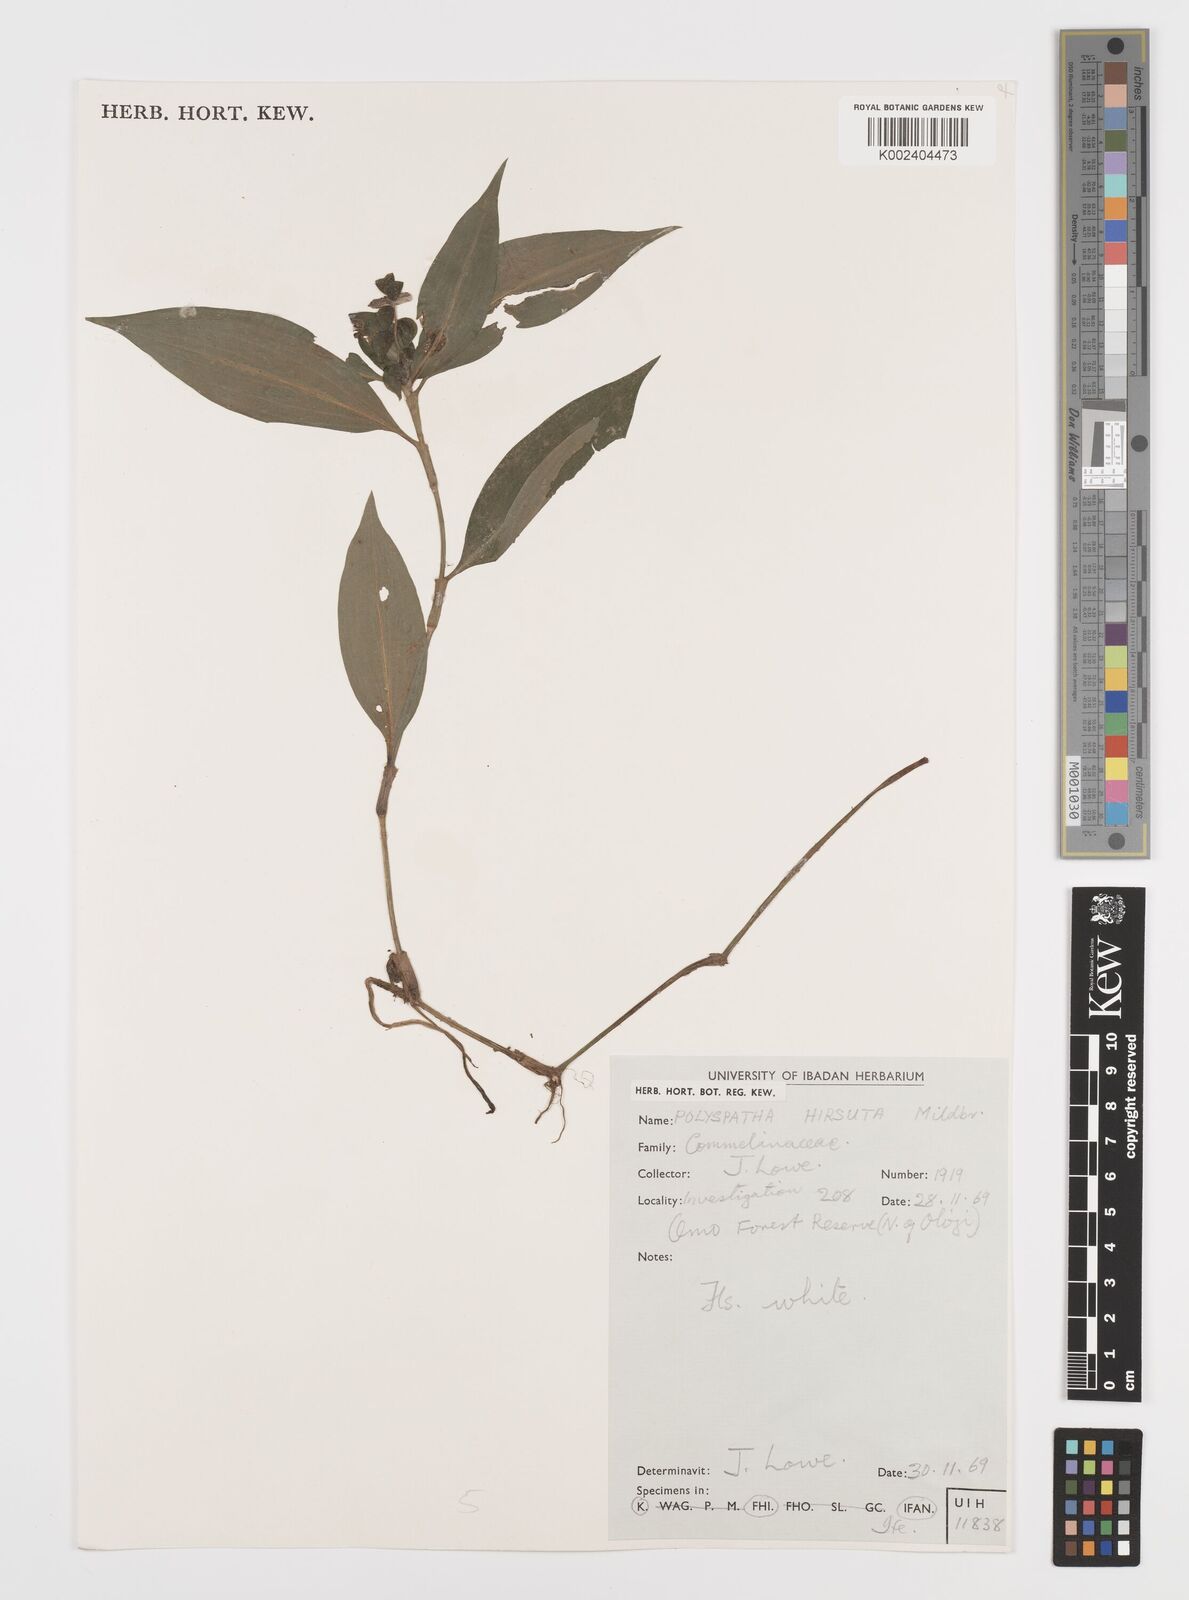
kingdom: Plantae
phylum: Tracheophyta
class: Liliopsida
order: Commelinales
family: Commelinaceae
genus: Polyspatha
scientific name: Polyspatha hirsuta
